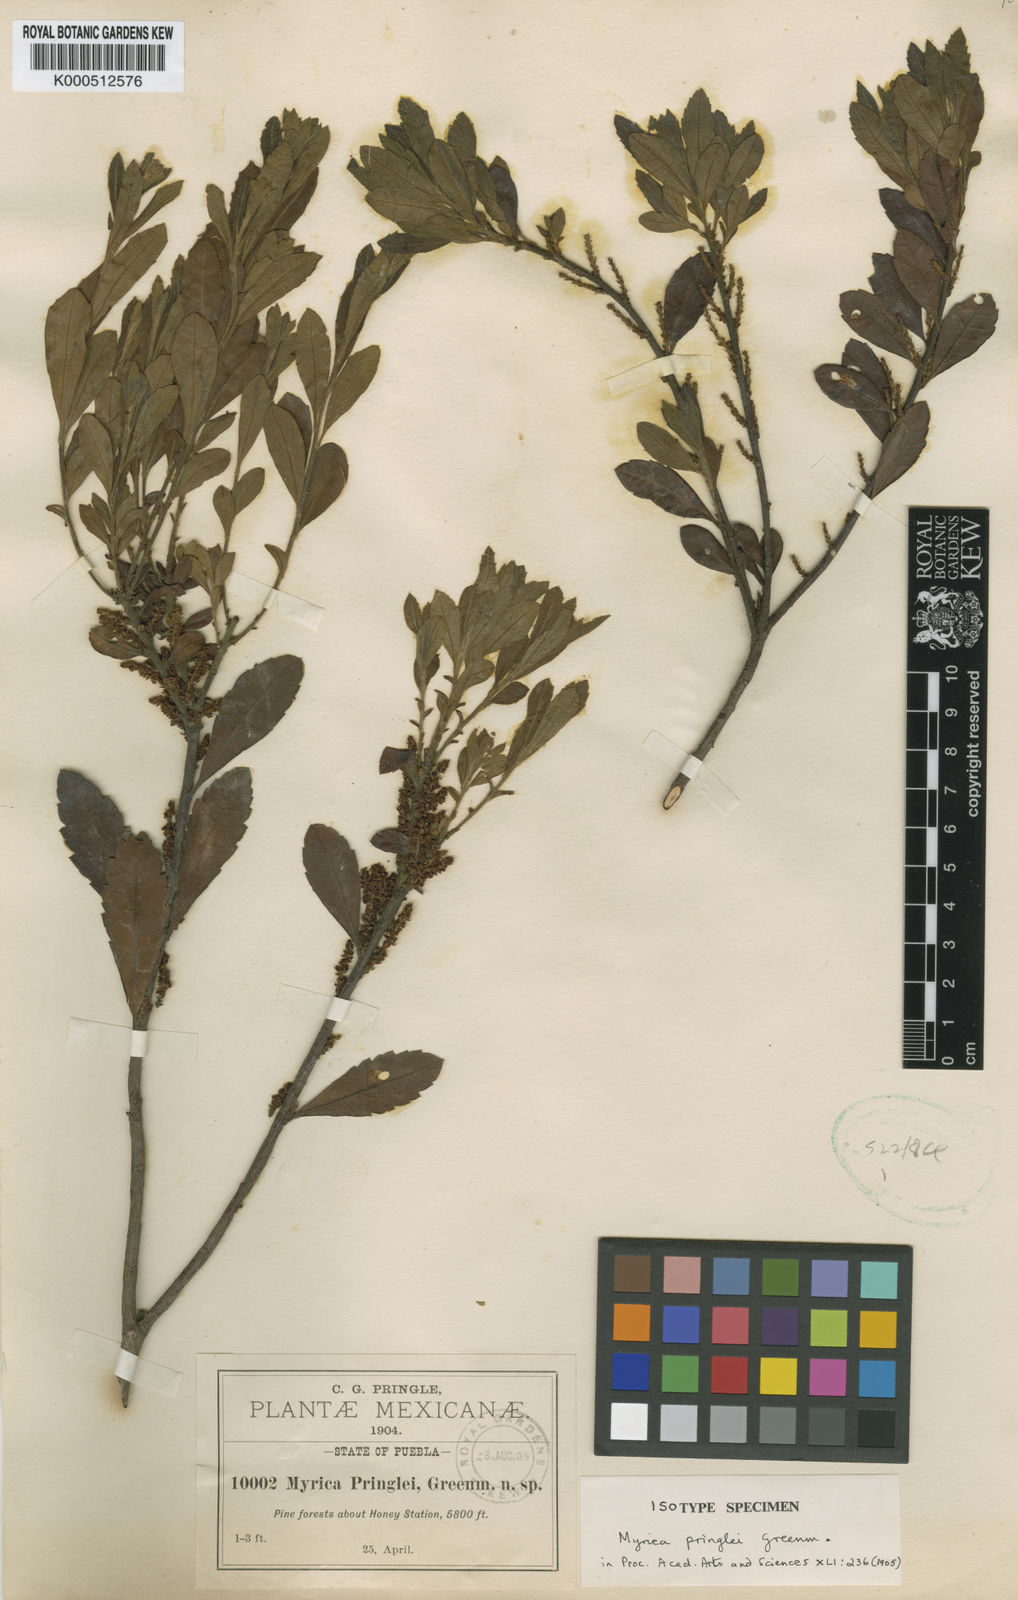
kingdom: Plantae
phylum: Tracheophyta
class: Magnoliopsida
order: Fagales
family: Myricaceae
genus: Morella
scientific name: Morella pringlei
